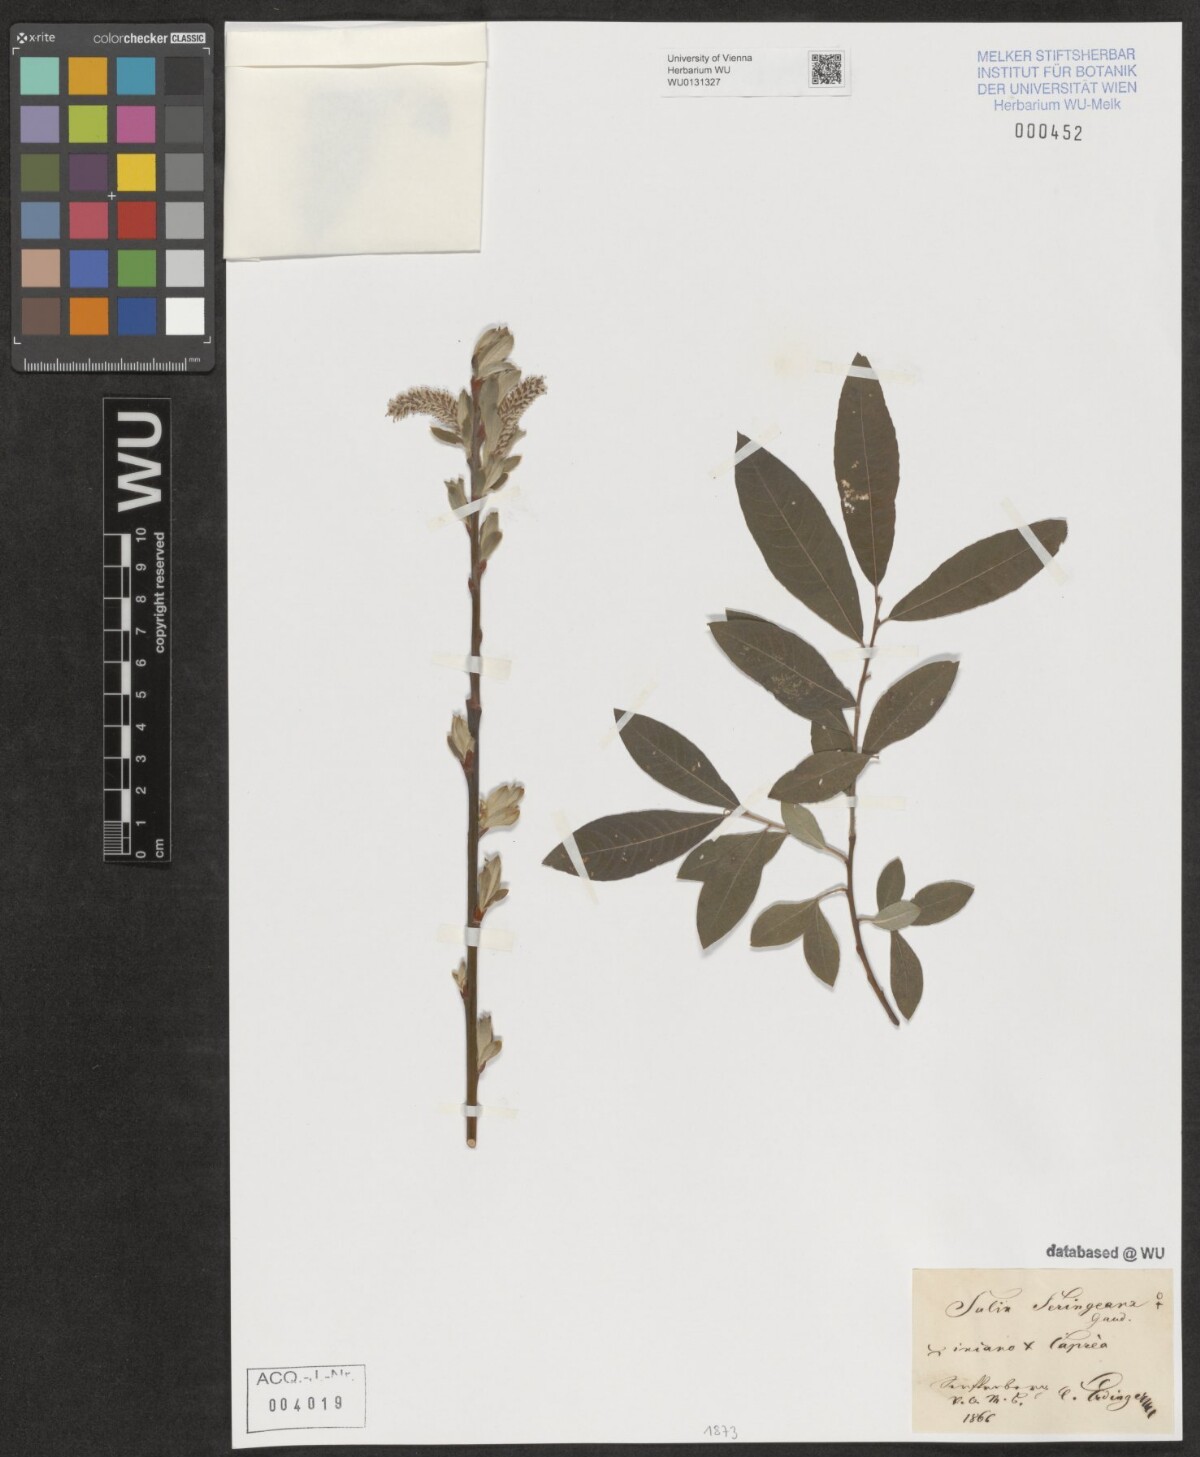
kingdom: Plantae
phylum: Tracheophyta
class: Magnoliopsida
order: Malpighiales
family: Salicaceae
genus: Salix
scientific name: Salix seringeana
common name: Seringe willow
